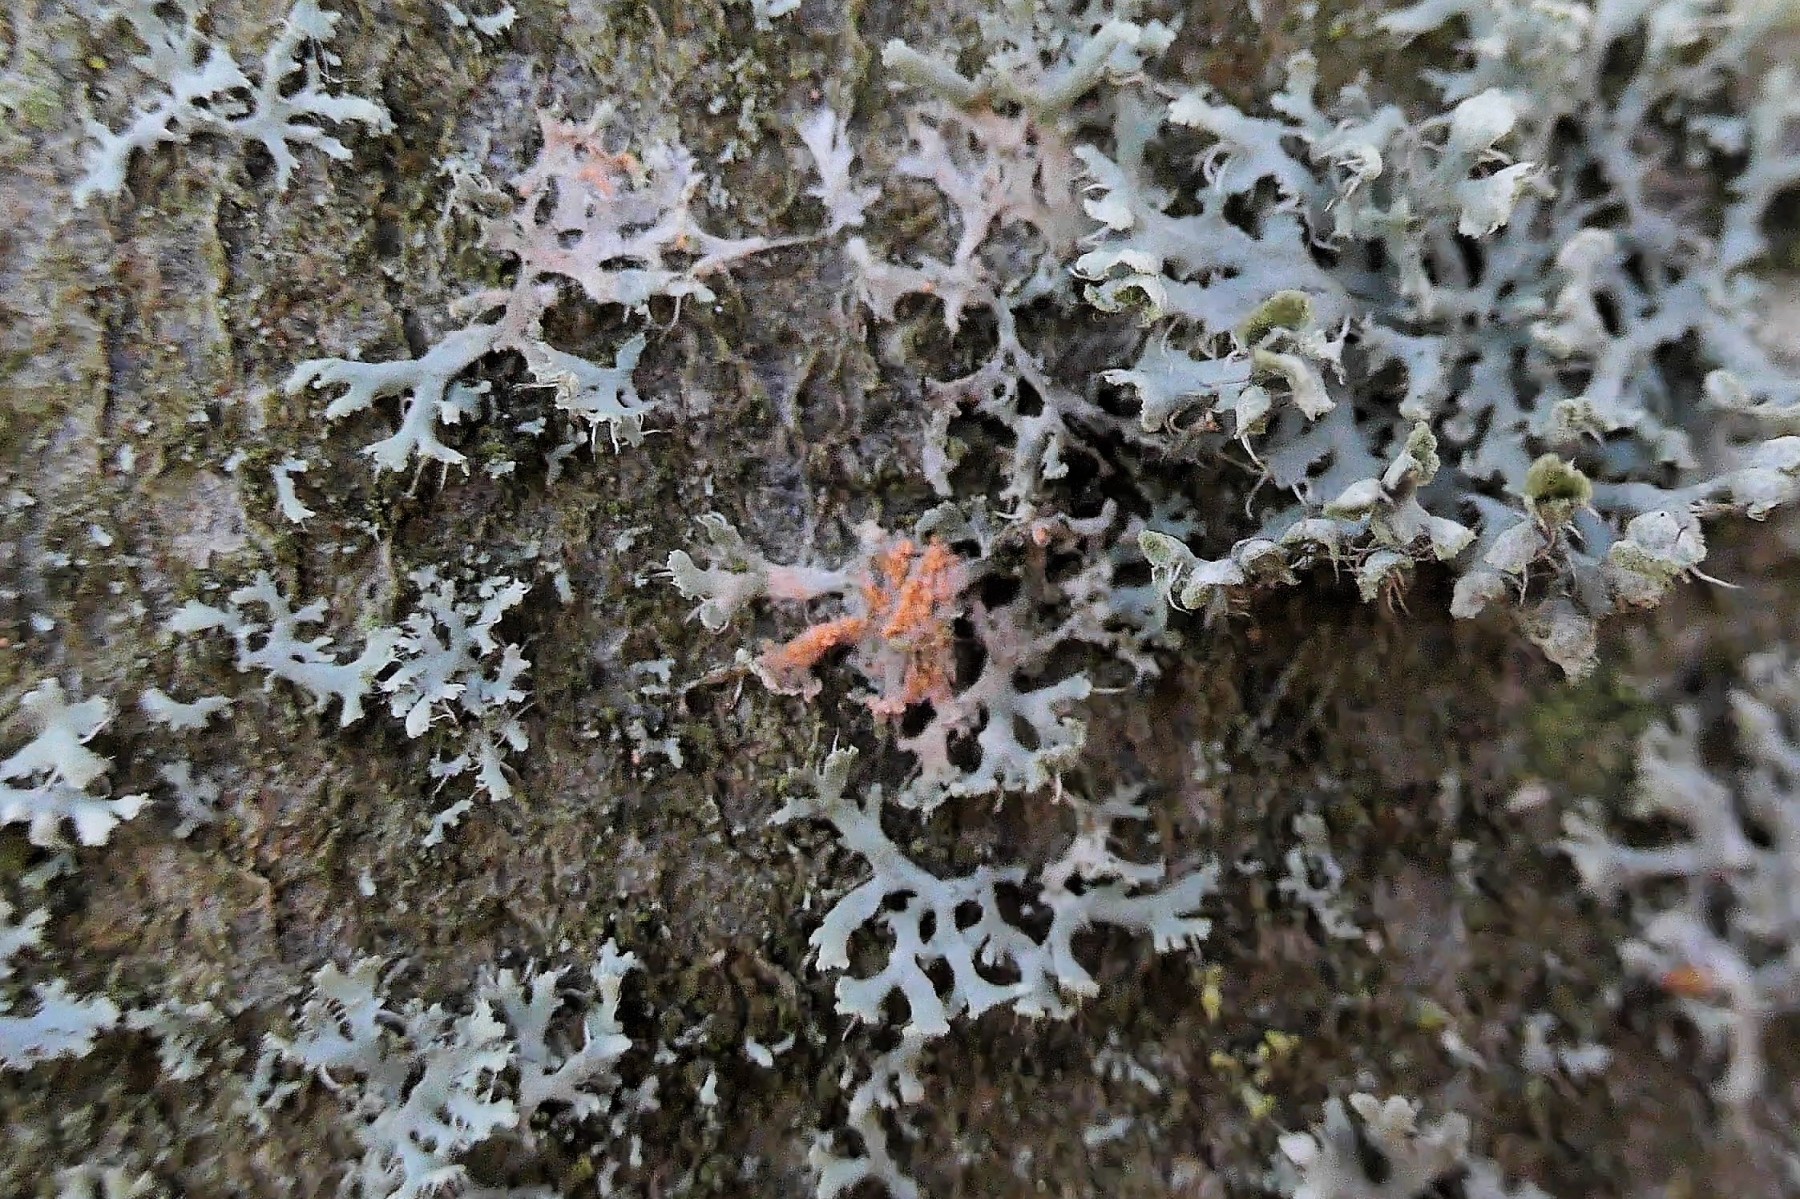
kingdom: Fungi
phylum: Basidiomycota
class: Agaricomycetes
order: Corticiales
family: Corticiaceae
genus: Erythricium
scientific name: Erythricium aurantiacum
